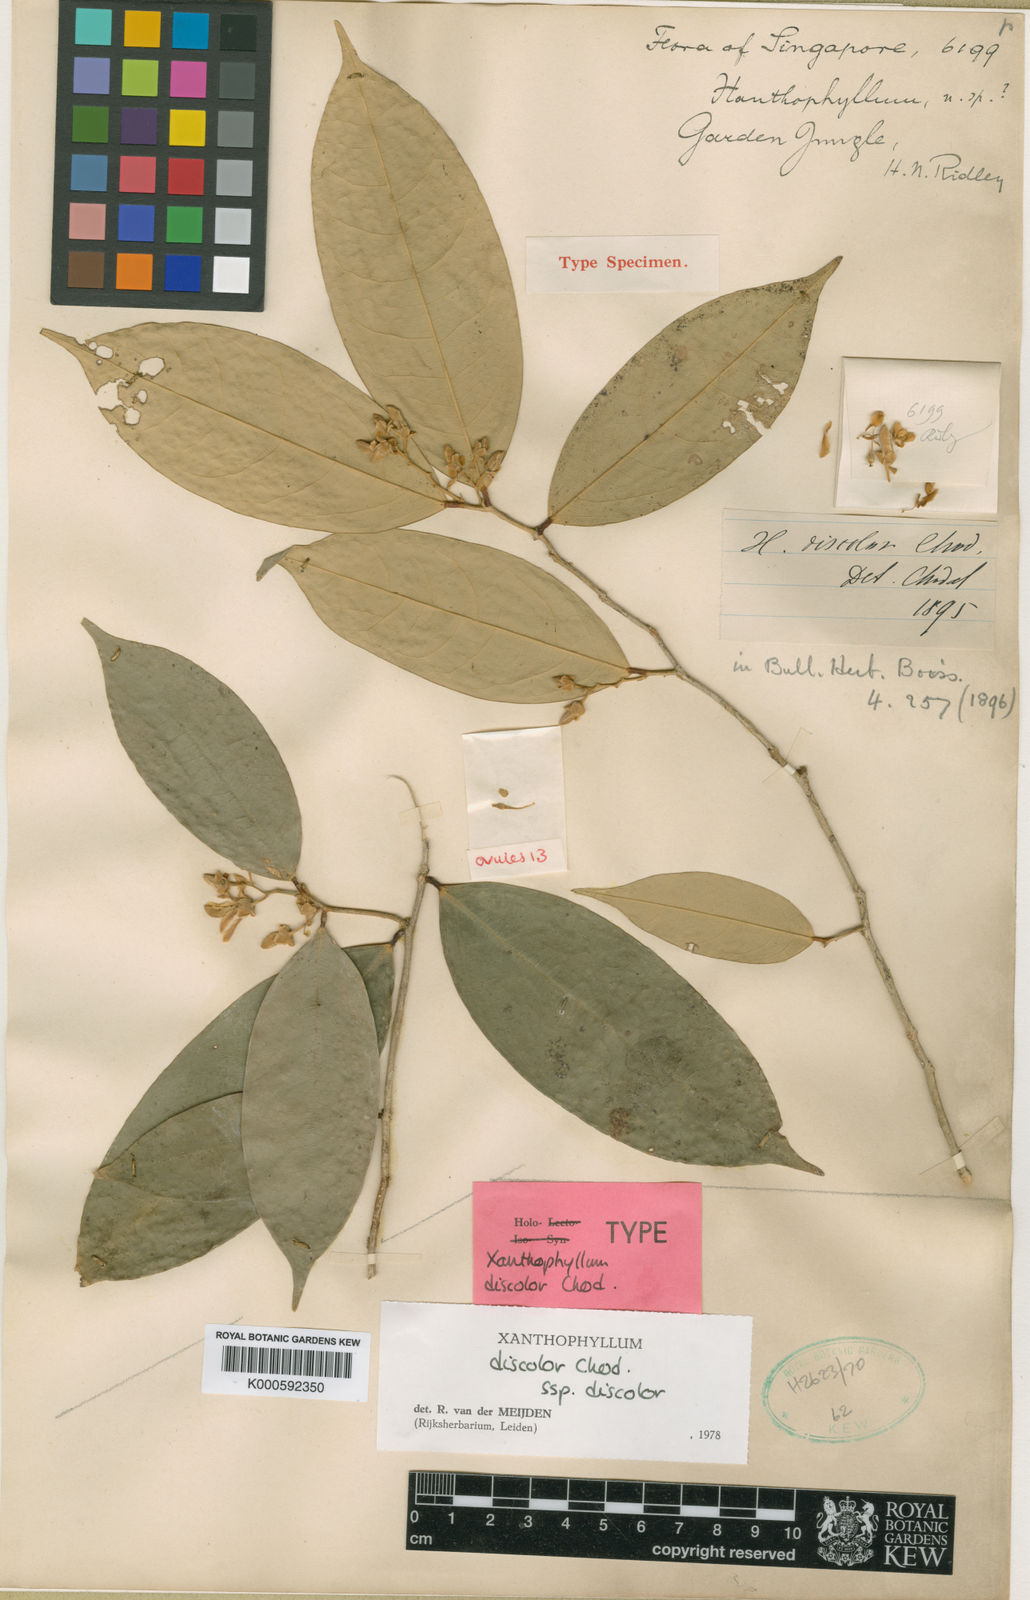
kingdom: Plantae
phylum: Tracheophyta
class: Magnoliopsida
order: Fabales
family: Polygalaceae
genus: Xanthophyllum
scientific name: Xanthophyllum discolor
